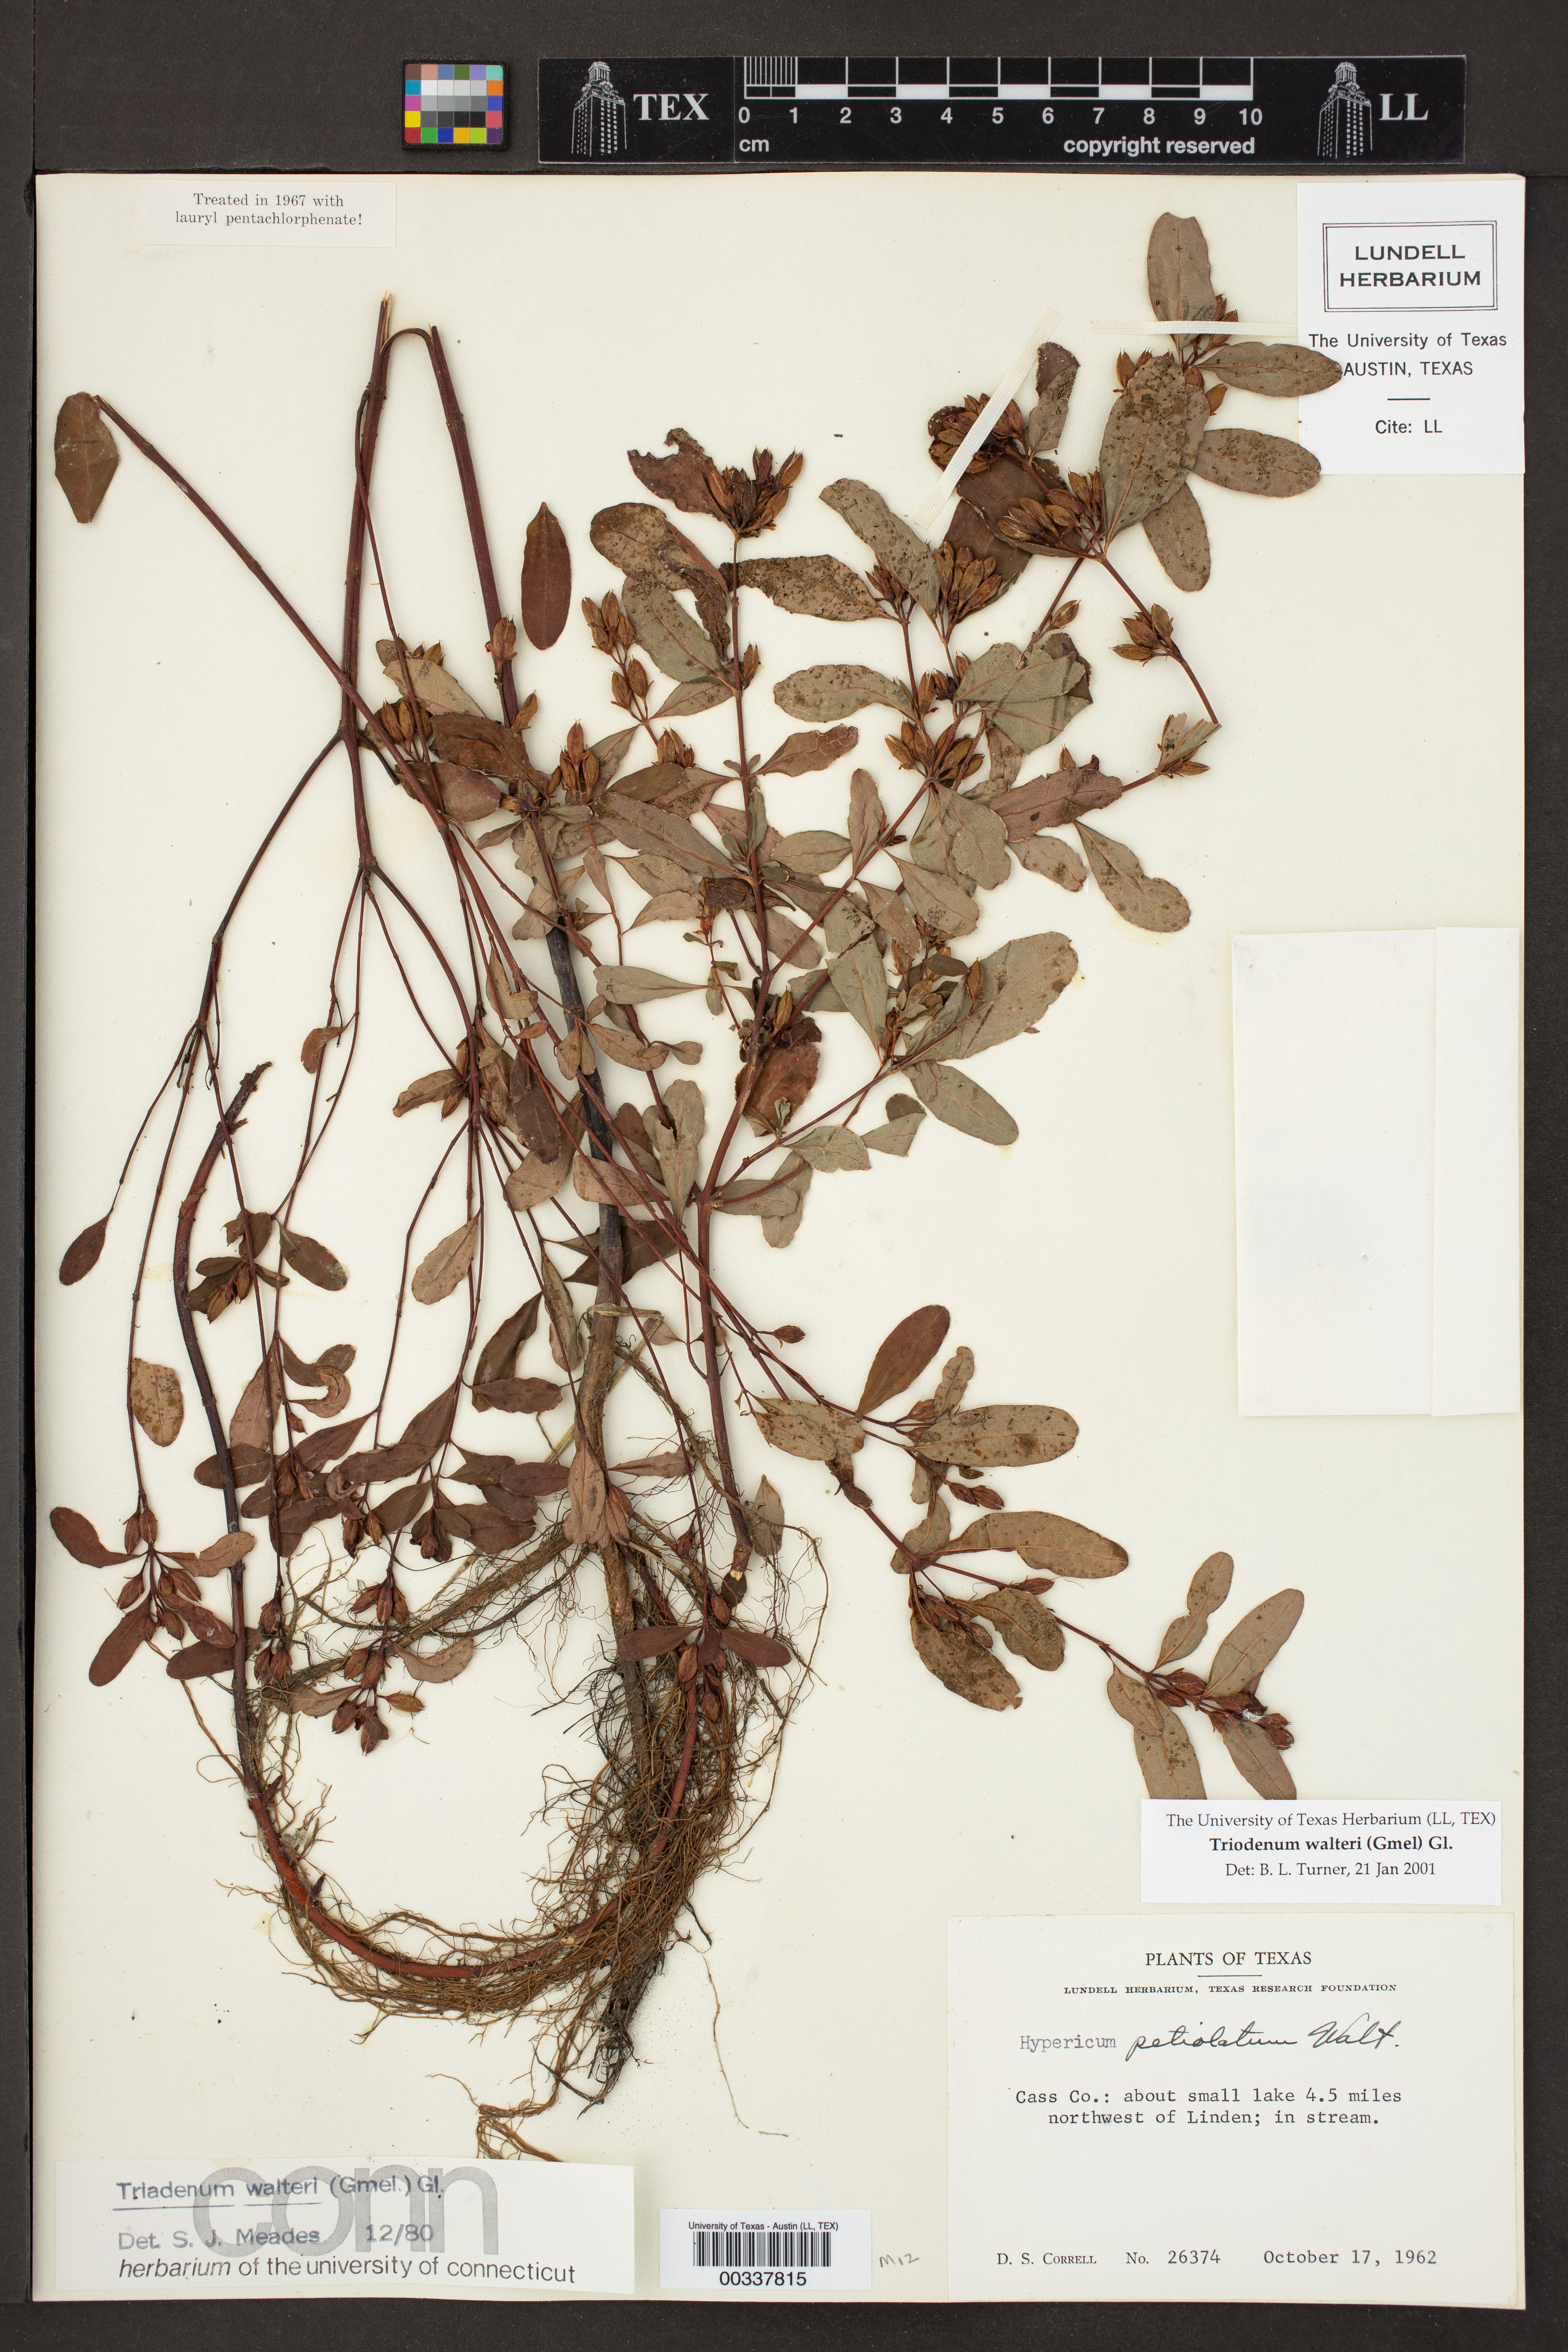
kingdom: Plantae
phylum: Tracheophyta
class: Magnoliopsida
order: Malpighiales
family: Hypericaceae
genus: Triadenum
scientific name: Triadenum walteri
